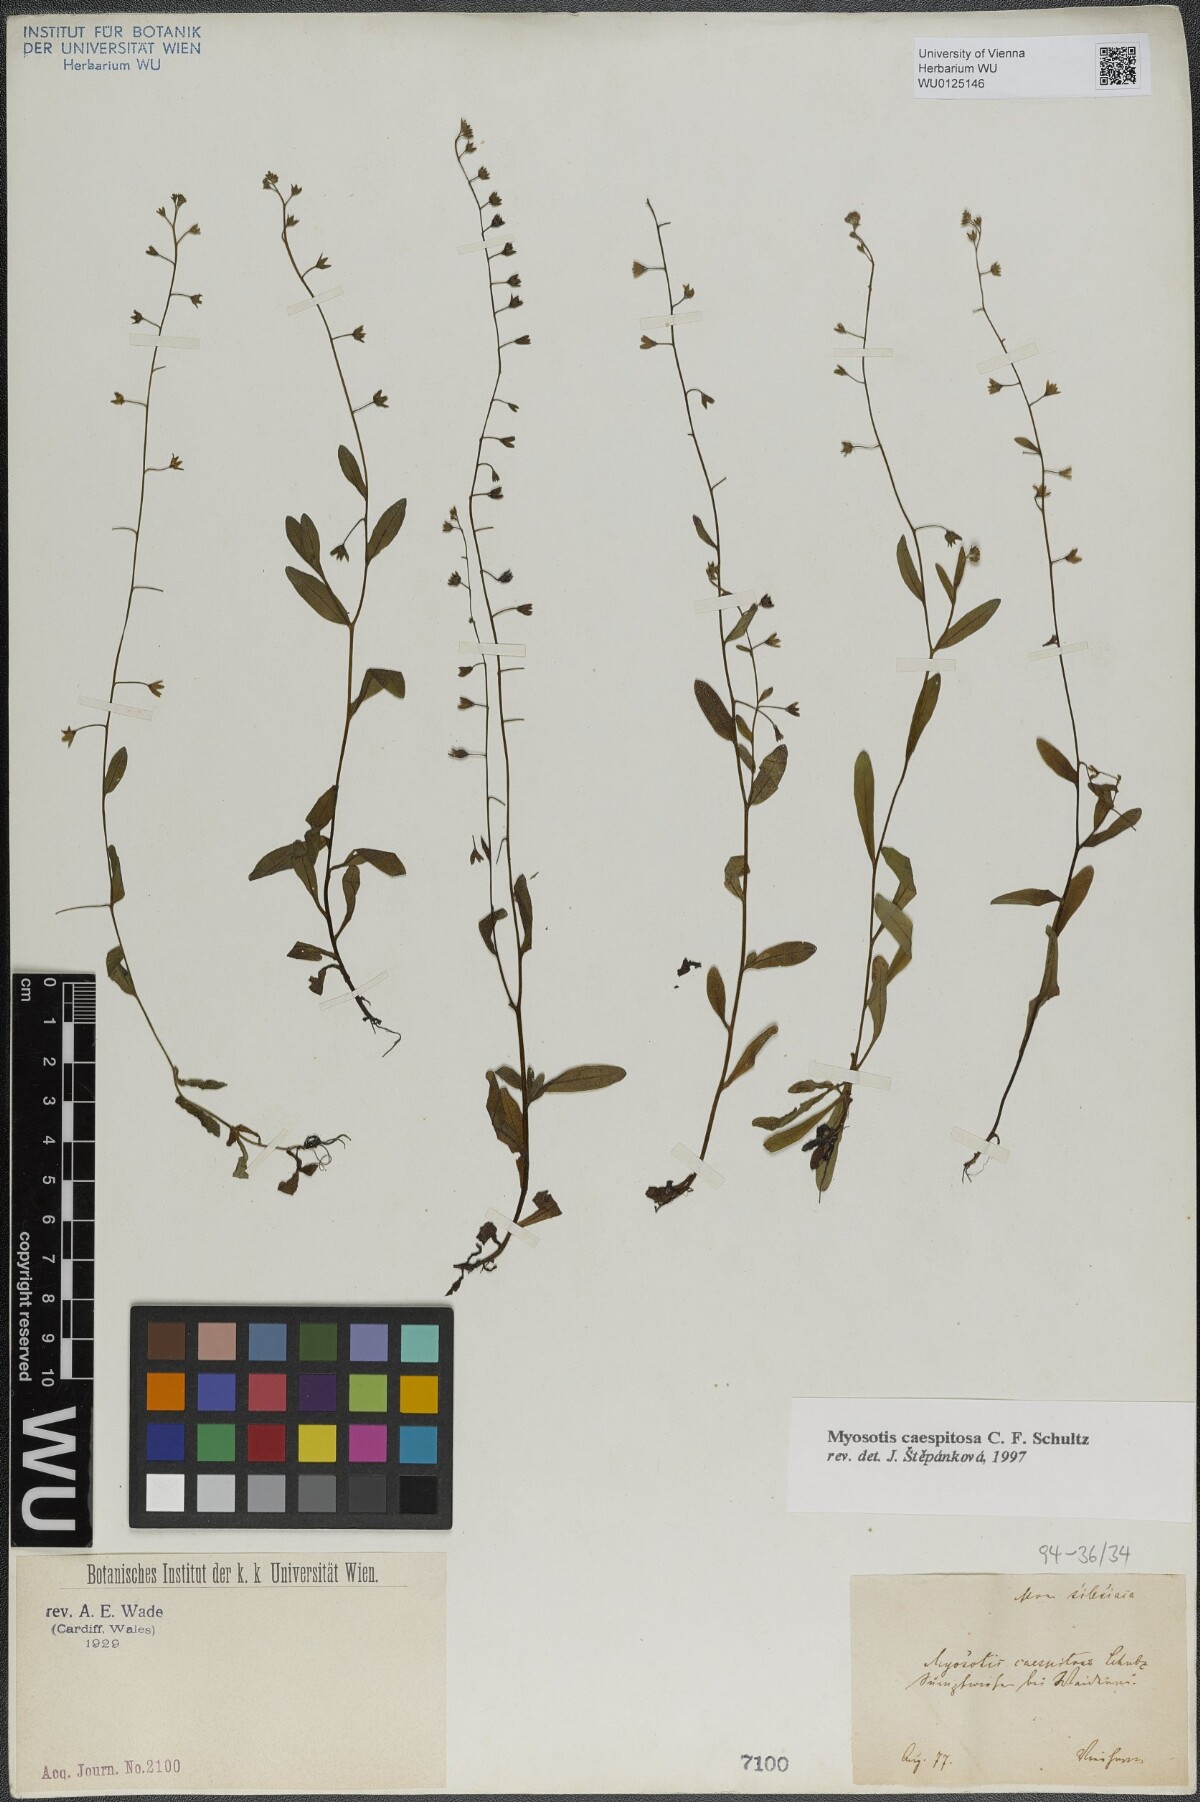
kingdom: Plantae
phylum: Tracheophyta
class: Magnoliopsida
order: Boraginales
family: Boraginaceae
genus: Myosotis
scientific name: Myosotis laxa
